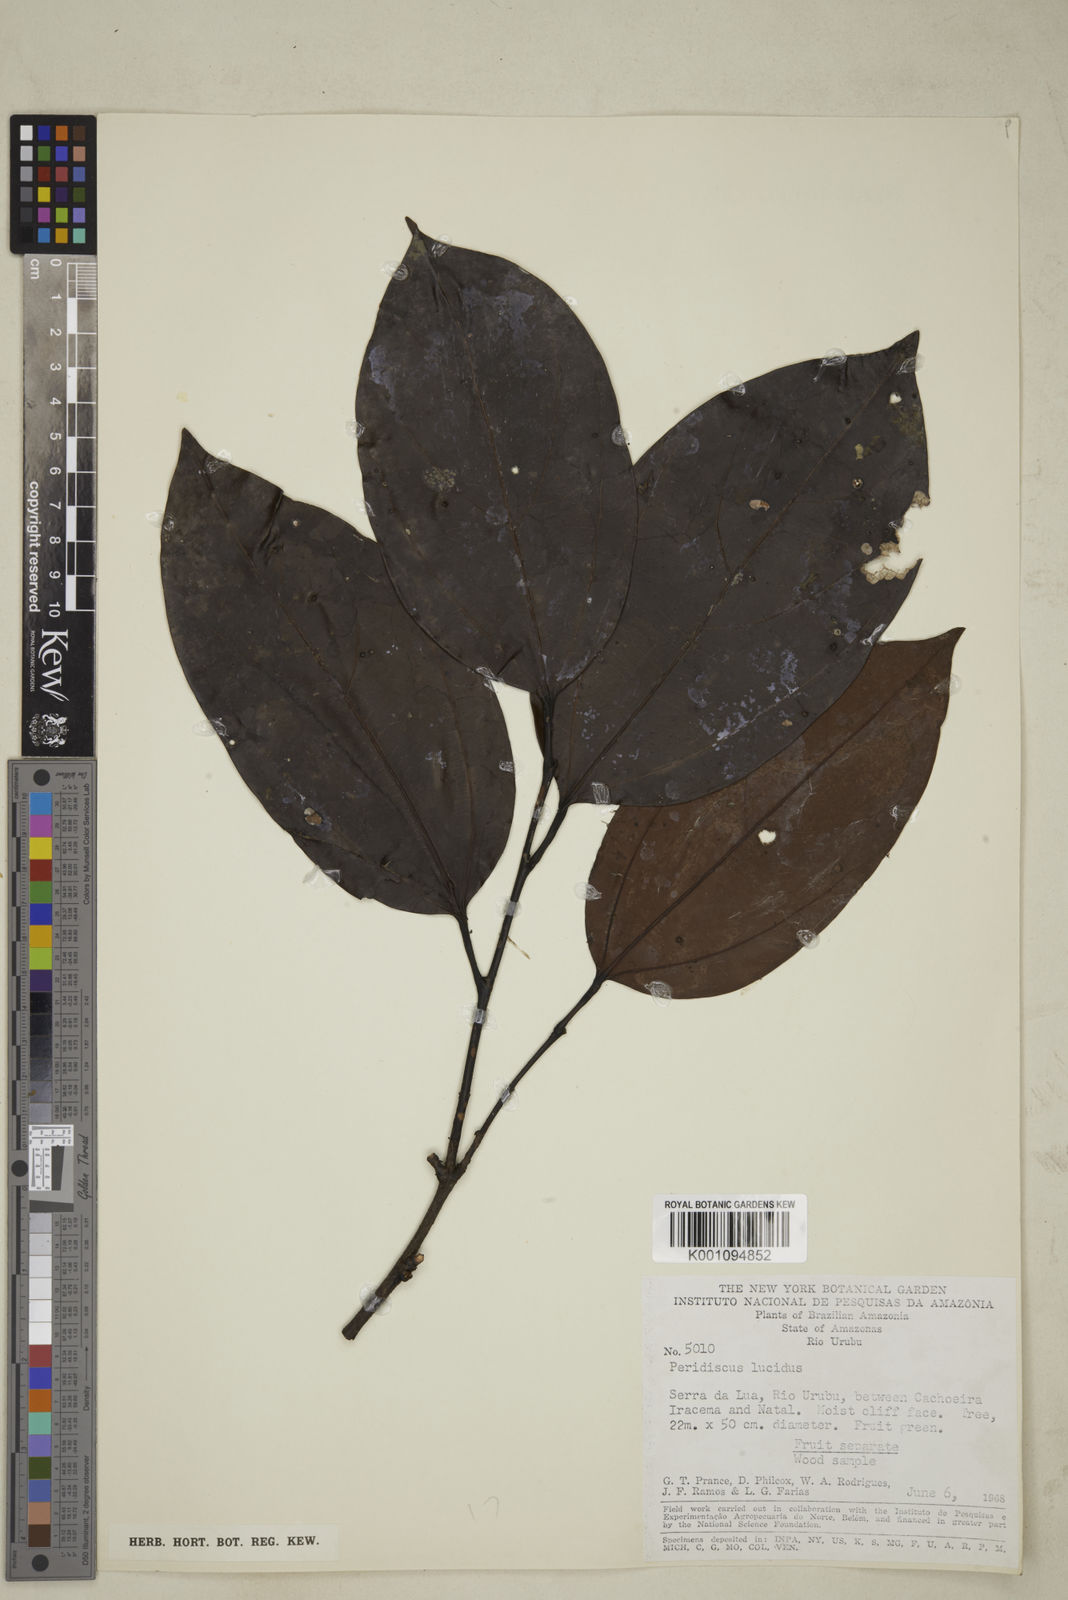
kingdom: Plantae
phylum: Tracheophyta
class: Magnoliopsida
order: Saxifragales
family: Peridiscaceae
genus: Peridiscus
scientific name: Peridiscus lucidus
